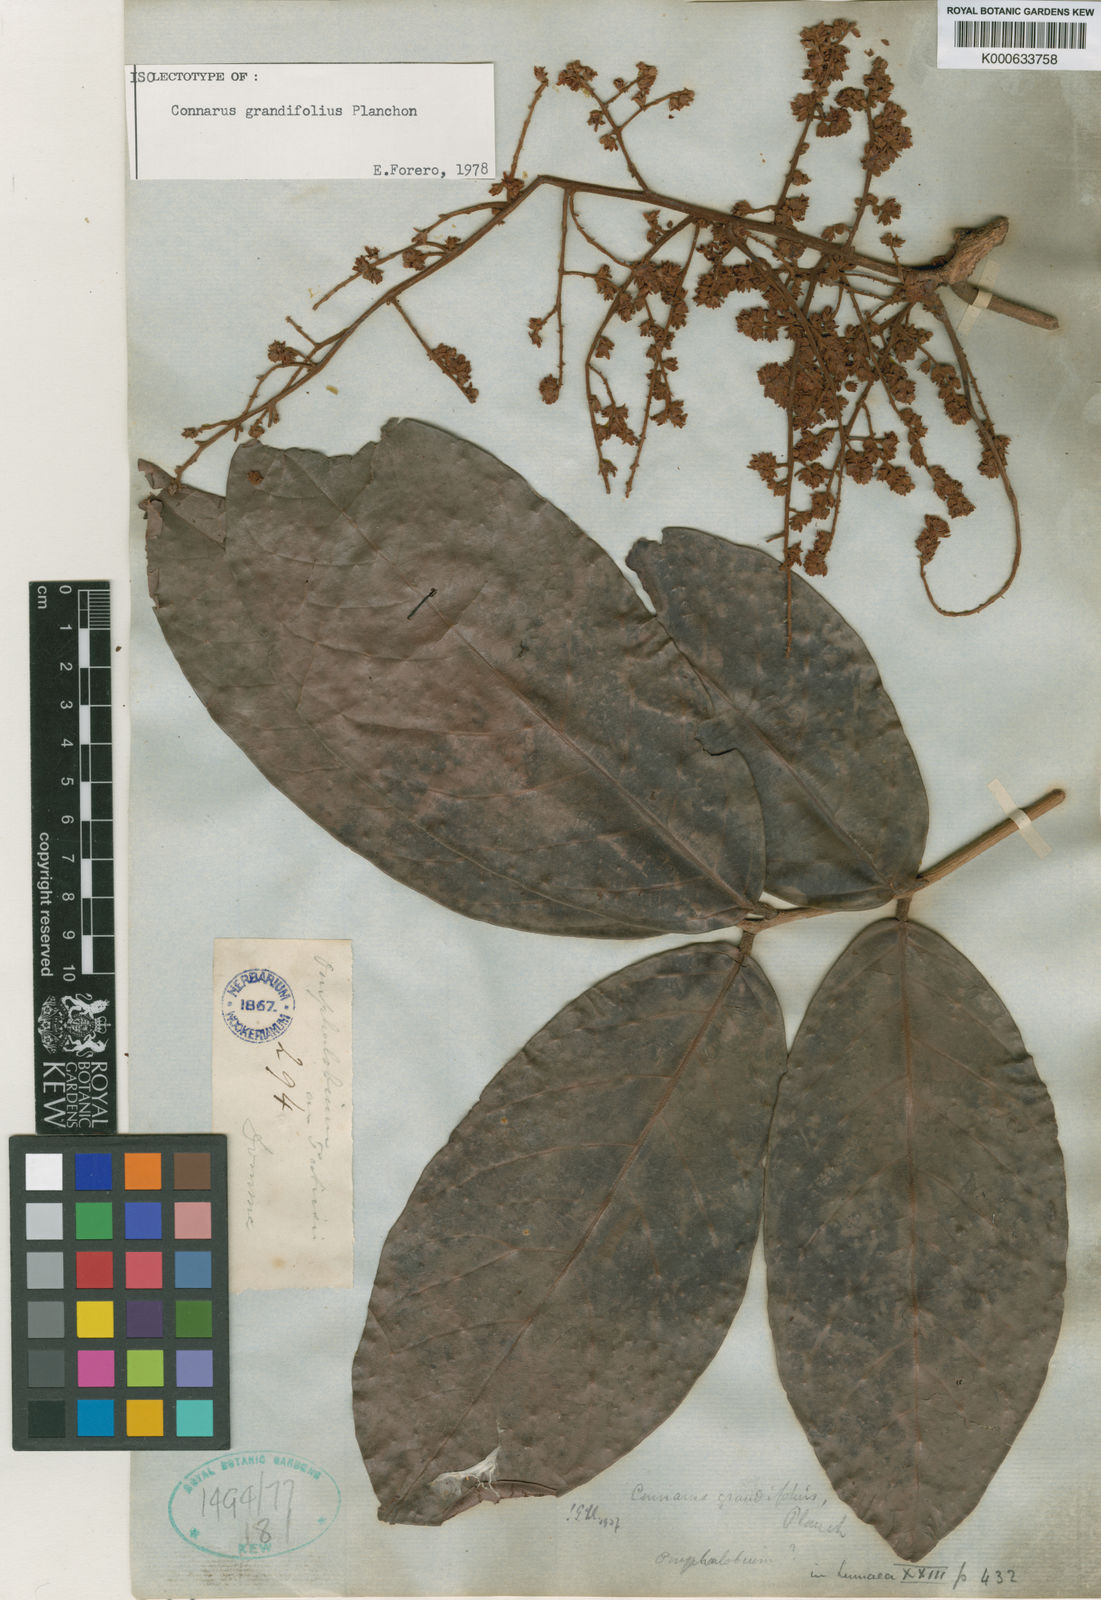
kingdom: Plantae
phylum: Tracheophyta
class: Magnoliopsida
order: Oxalidales
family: Connaraceae
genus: Connarus
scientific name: Connarus grandifolius
